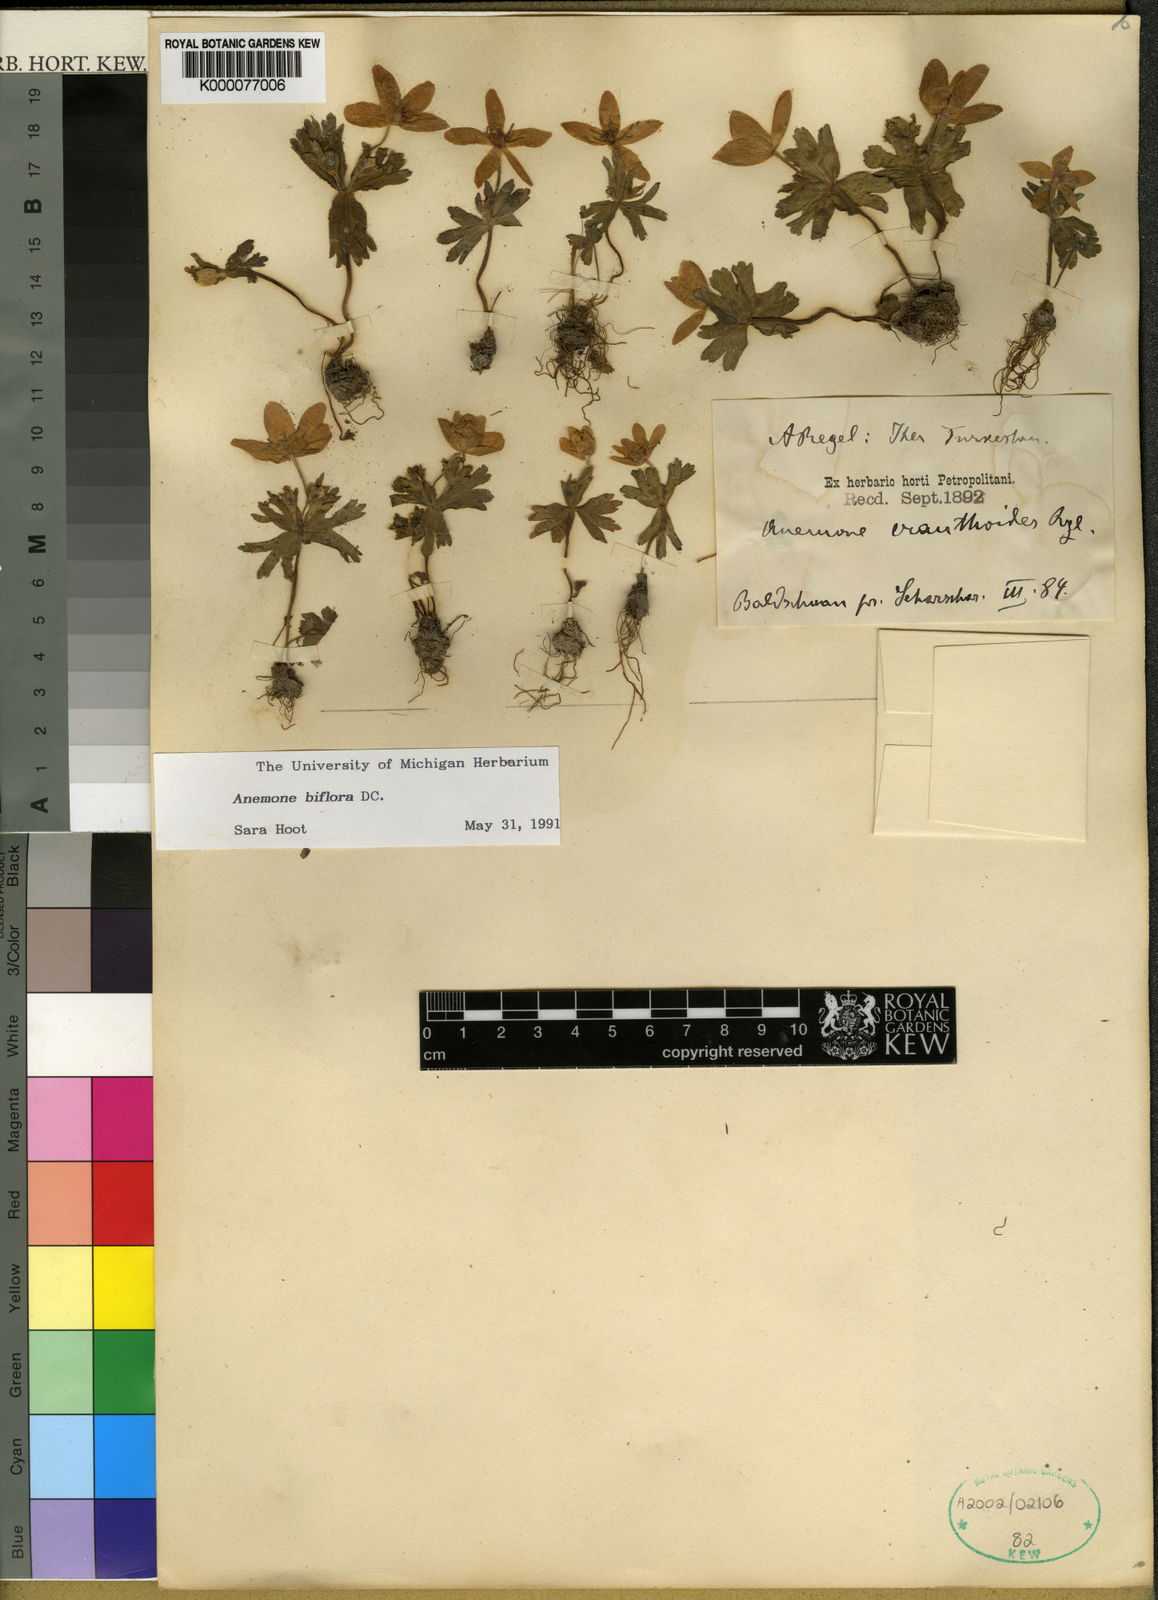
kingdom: Plantae
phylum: Tracheophyta
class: Magnoliopsida
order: Ranunculales
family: Ranunculaceae
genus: Anemone
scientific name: Anemone biflora
